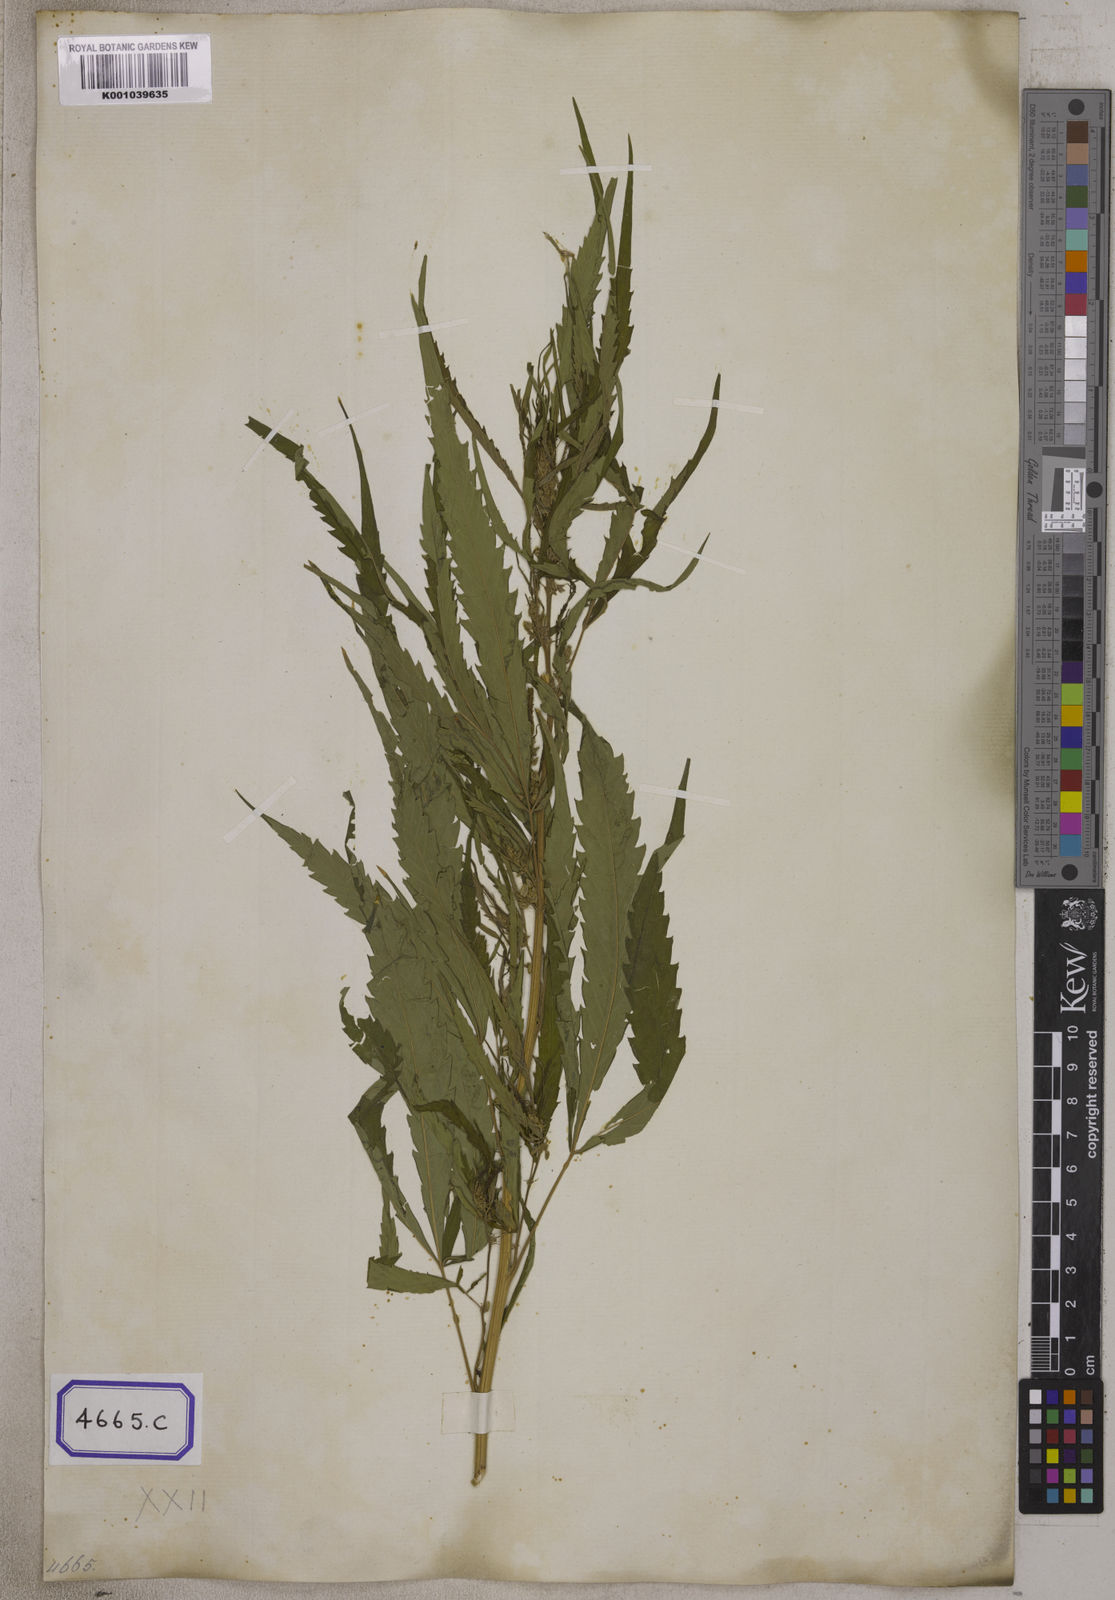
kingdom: Plantae
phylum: Tracheophyta
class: Magnoliopsida
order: Rosales
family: Cannabaceae
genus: Cannabis
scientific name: Cannabis sativa
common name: Hemp
